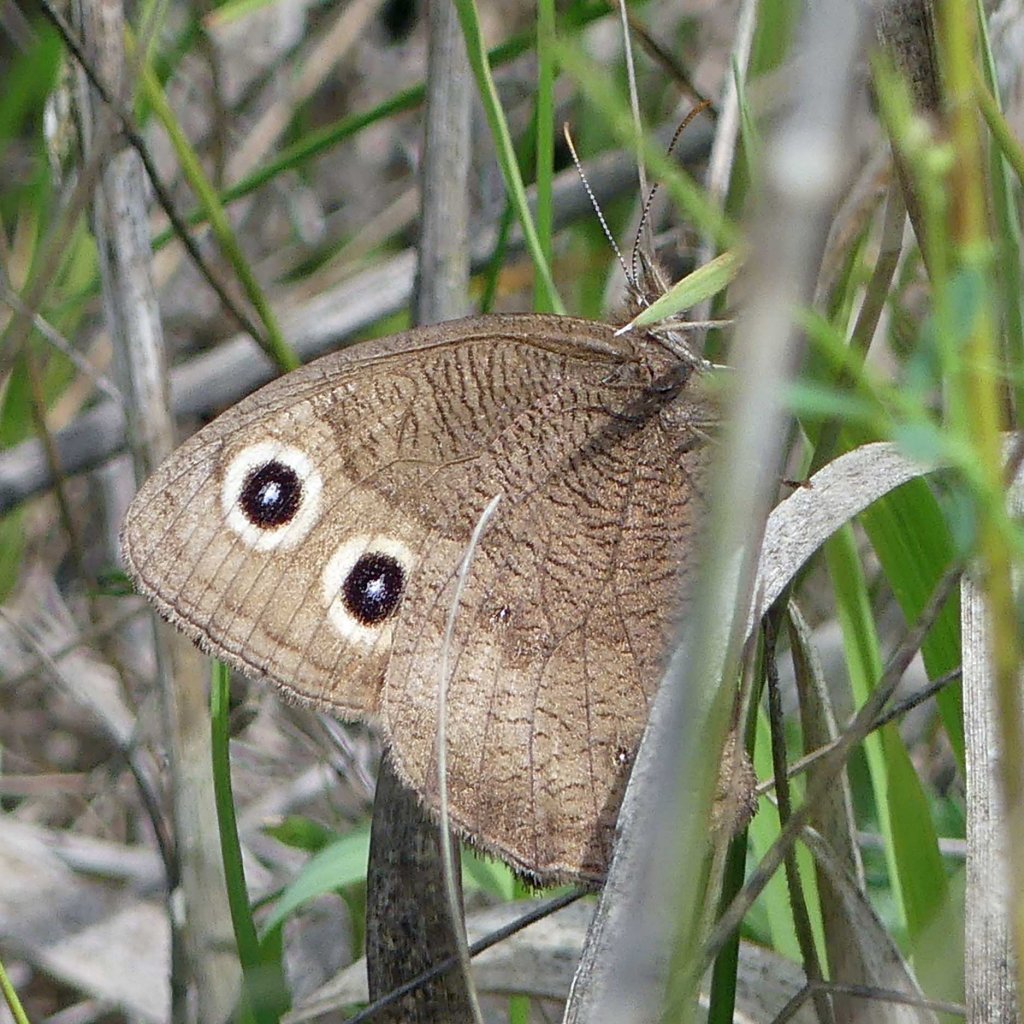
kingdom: Animalia
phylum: Arthropoda
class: Insecta
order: Lepidoptera
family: Nymphalidae
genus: Cercyonis
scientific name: Cercyonis pegala
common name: Common Wood-Nymph
